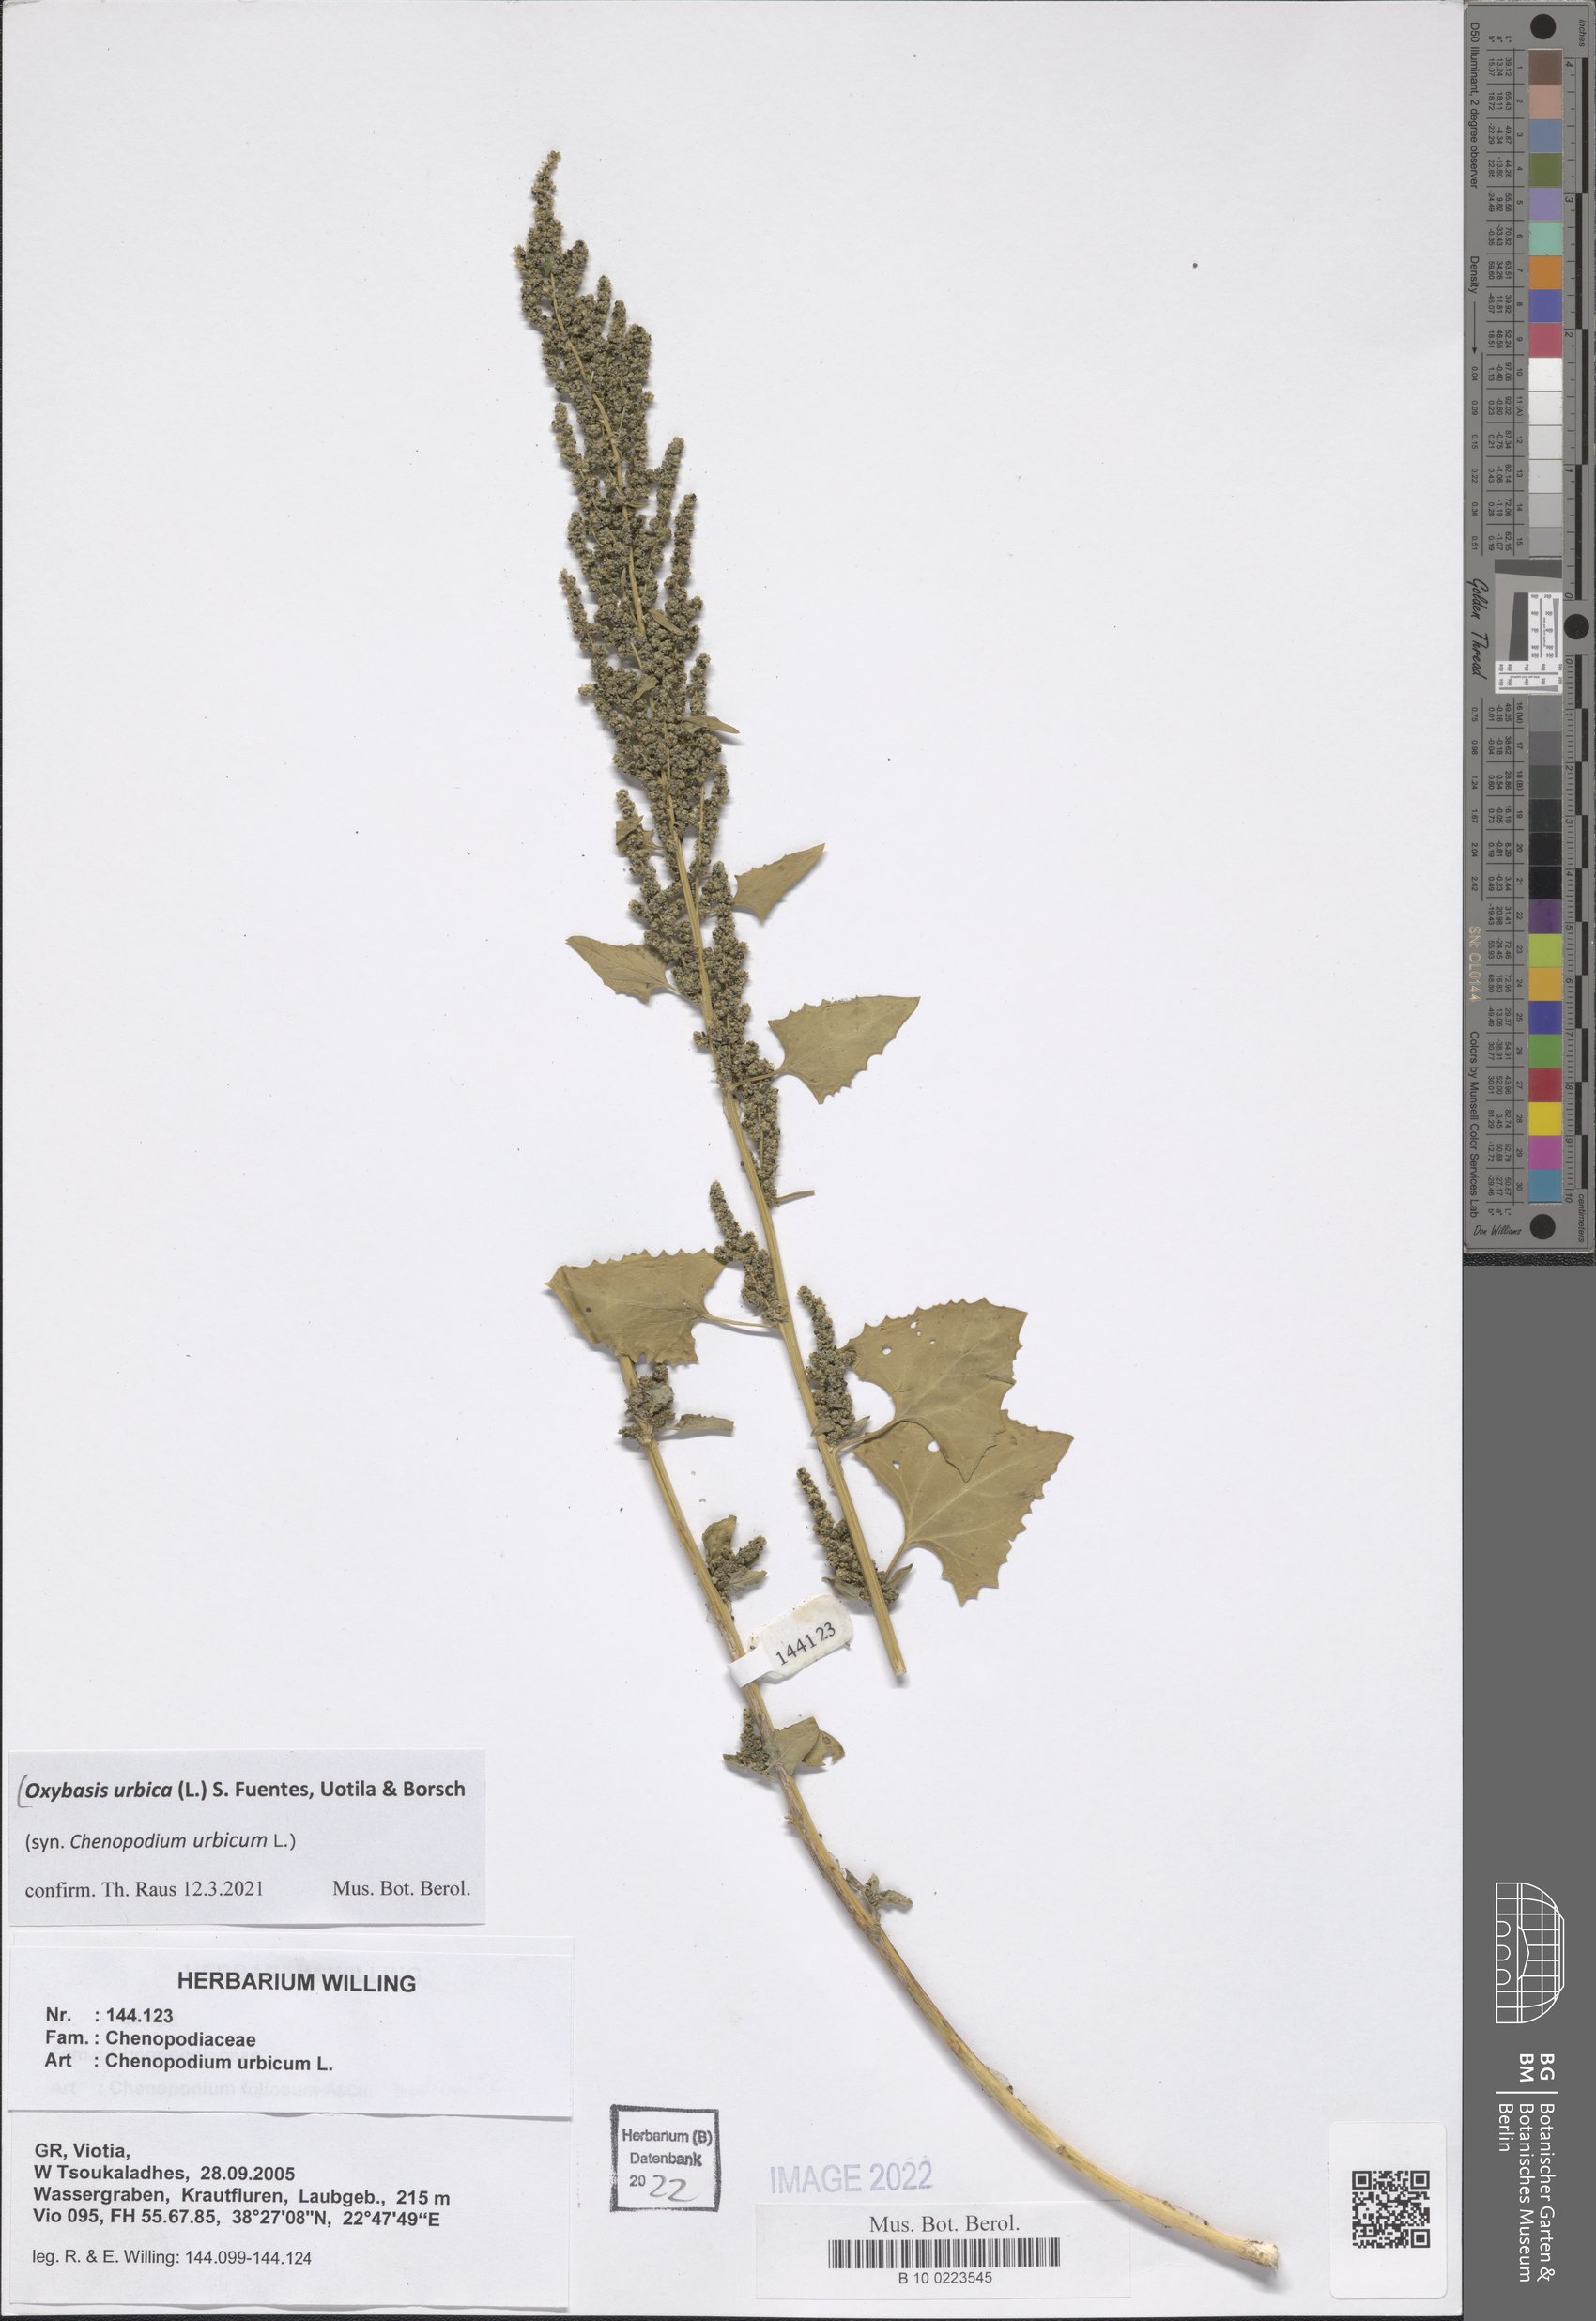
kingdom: Plantae
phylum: Tracheophyta
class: Magnoliopsida
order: Caryophyllales
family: Amaranthaceae
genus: Oxybasis
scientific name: Oxybasis urbica
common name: City goosefoot
